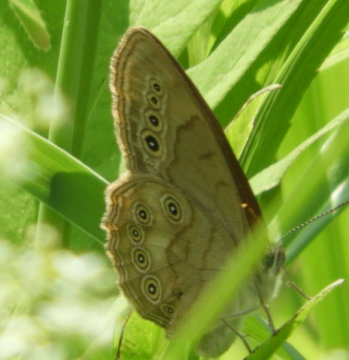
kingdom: Animalia
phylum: Arthropoda
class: Insecta
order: Lepidoptera
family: Nymphalidae
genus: Lethe
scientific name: Lethe eurydice
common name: Appalachian Eyed Brown
